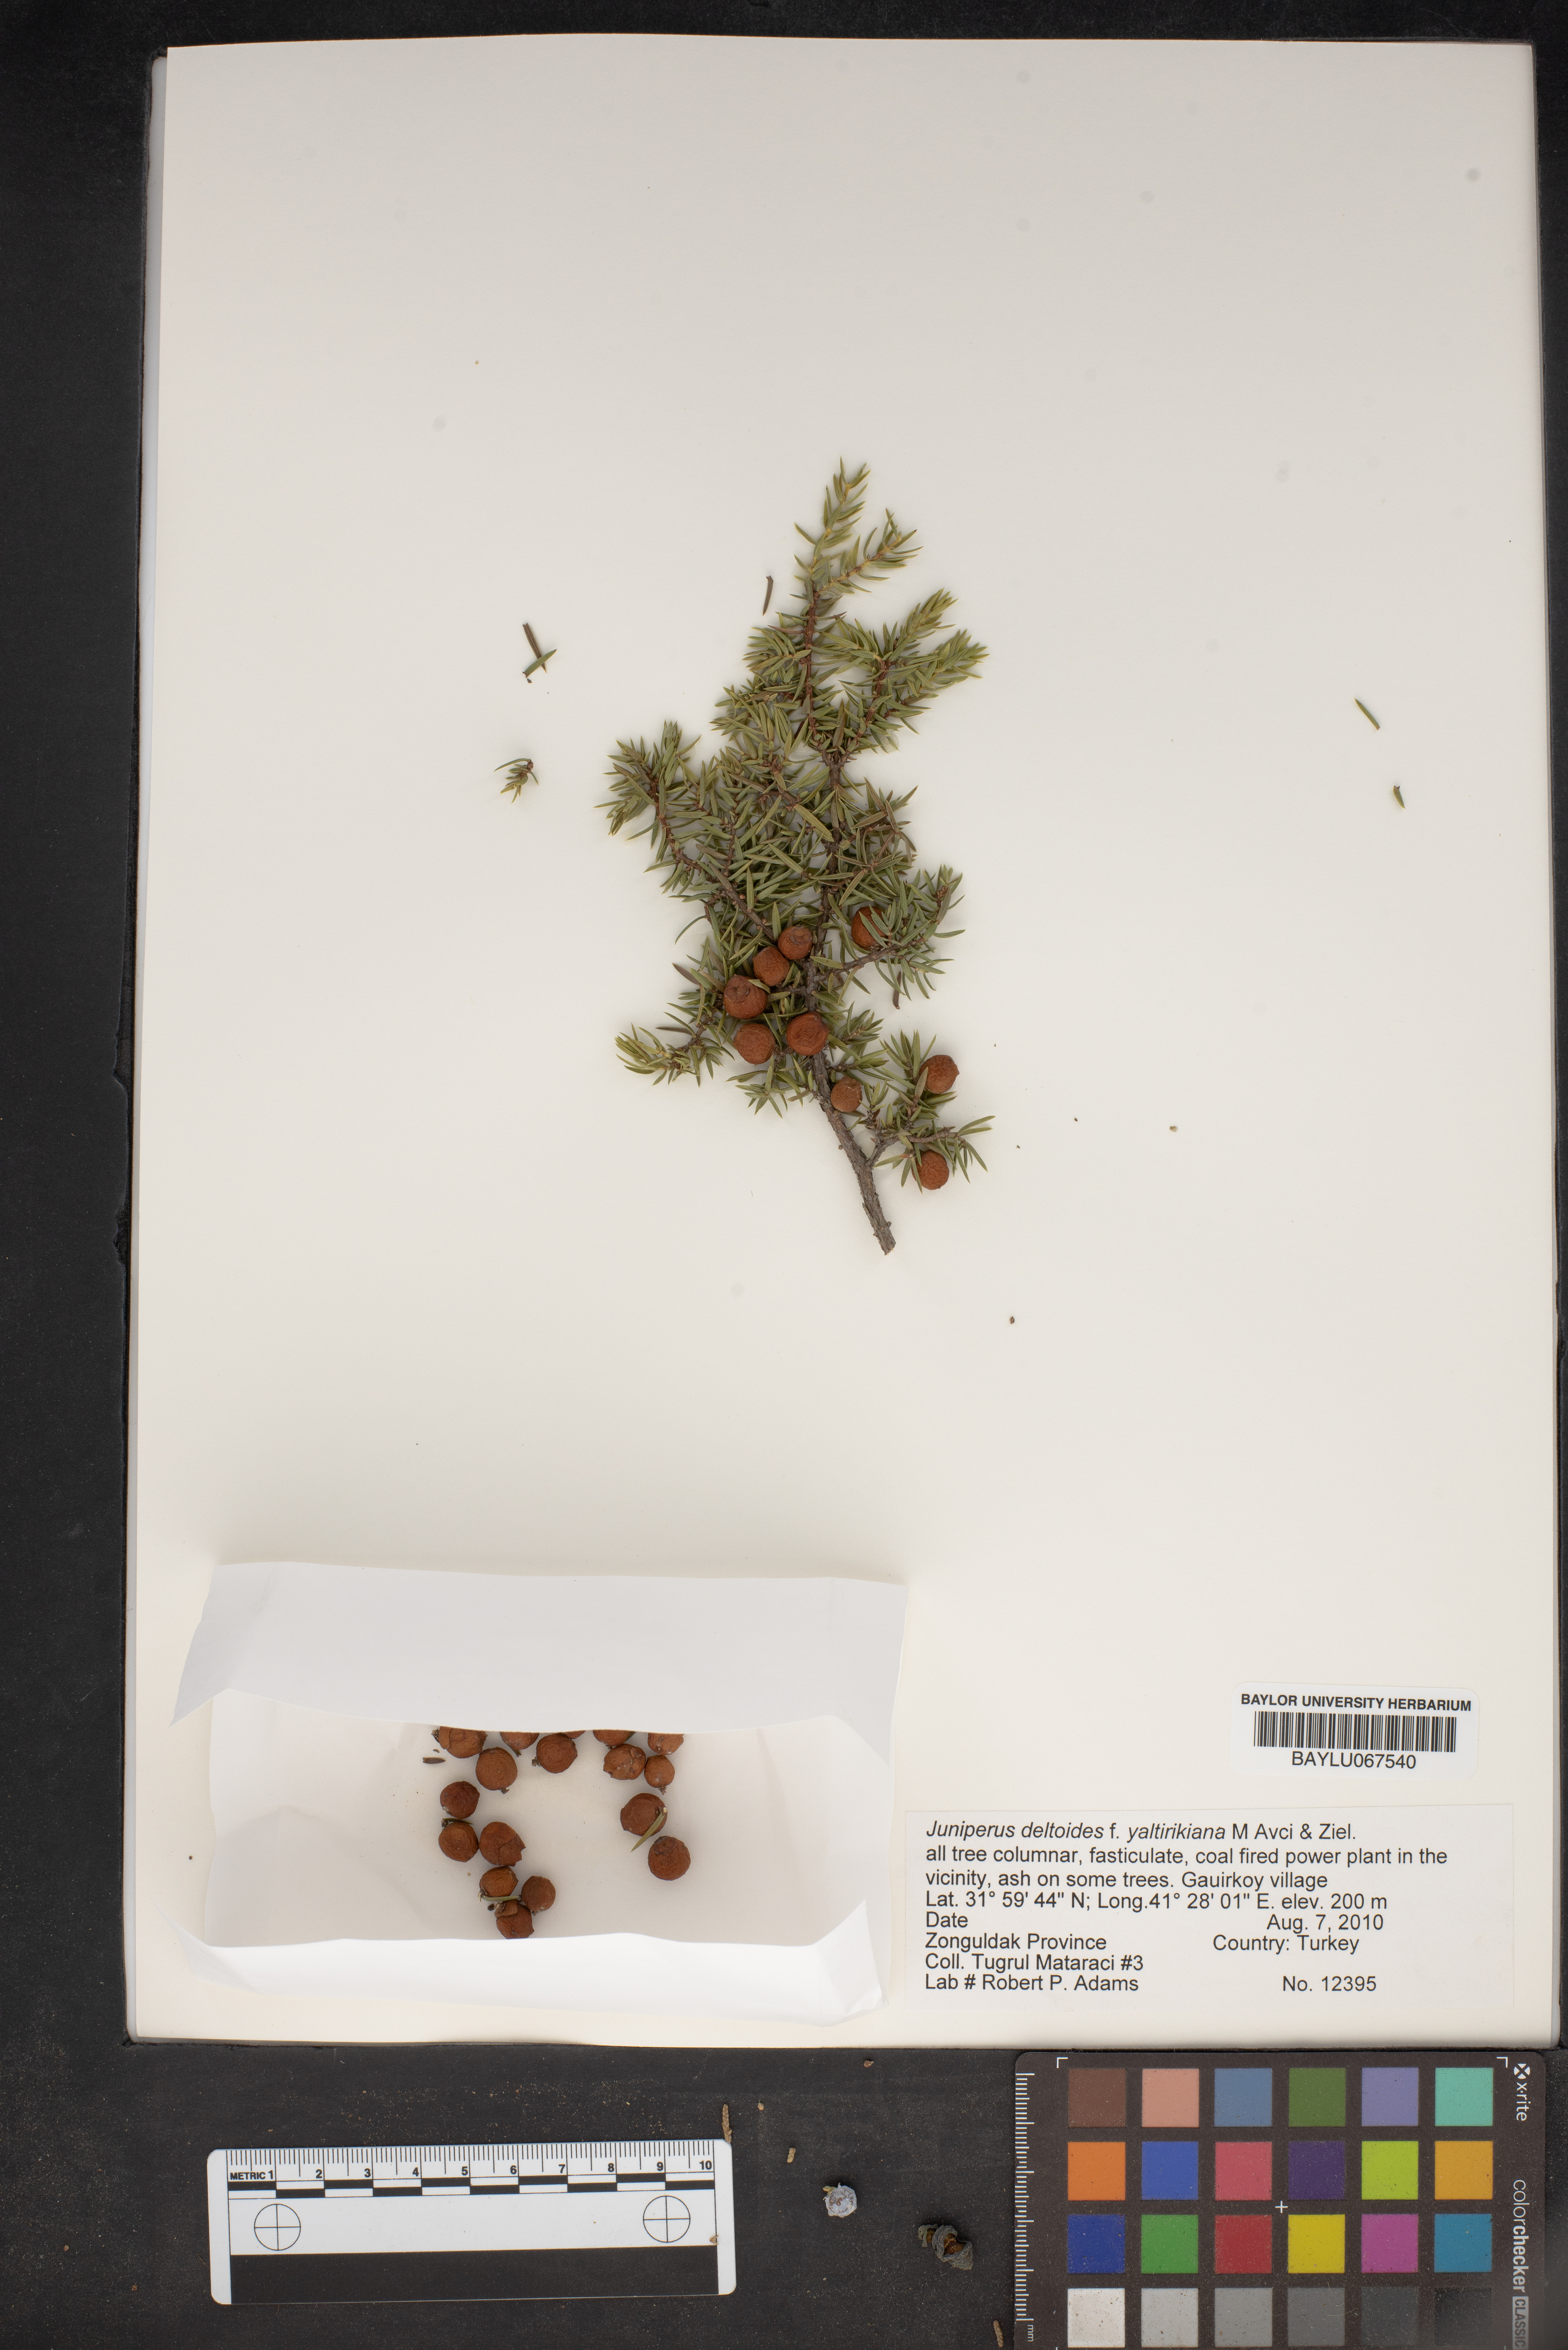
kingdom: Plantae
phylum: Tracheophyta
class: Pinopsida
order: Pinales
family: Cupressaceae
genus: Juniperus
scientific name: Juniperus oxycedrus
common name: Prickly juniper
